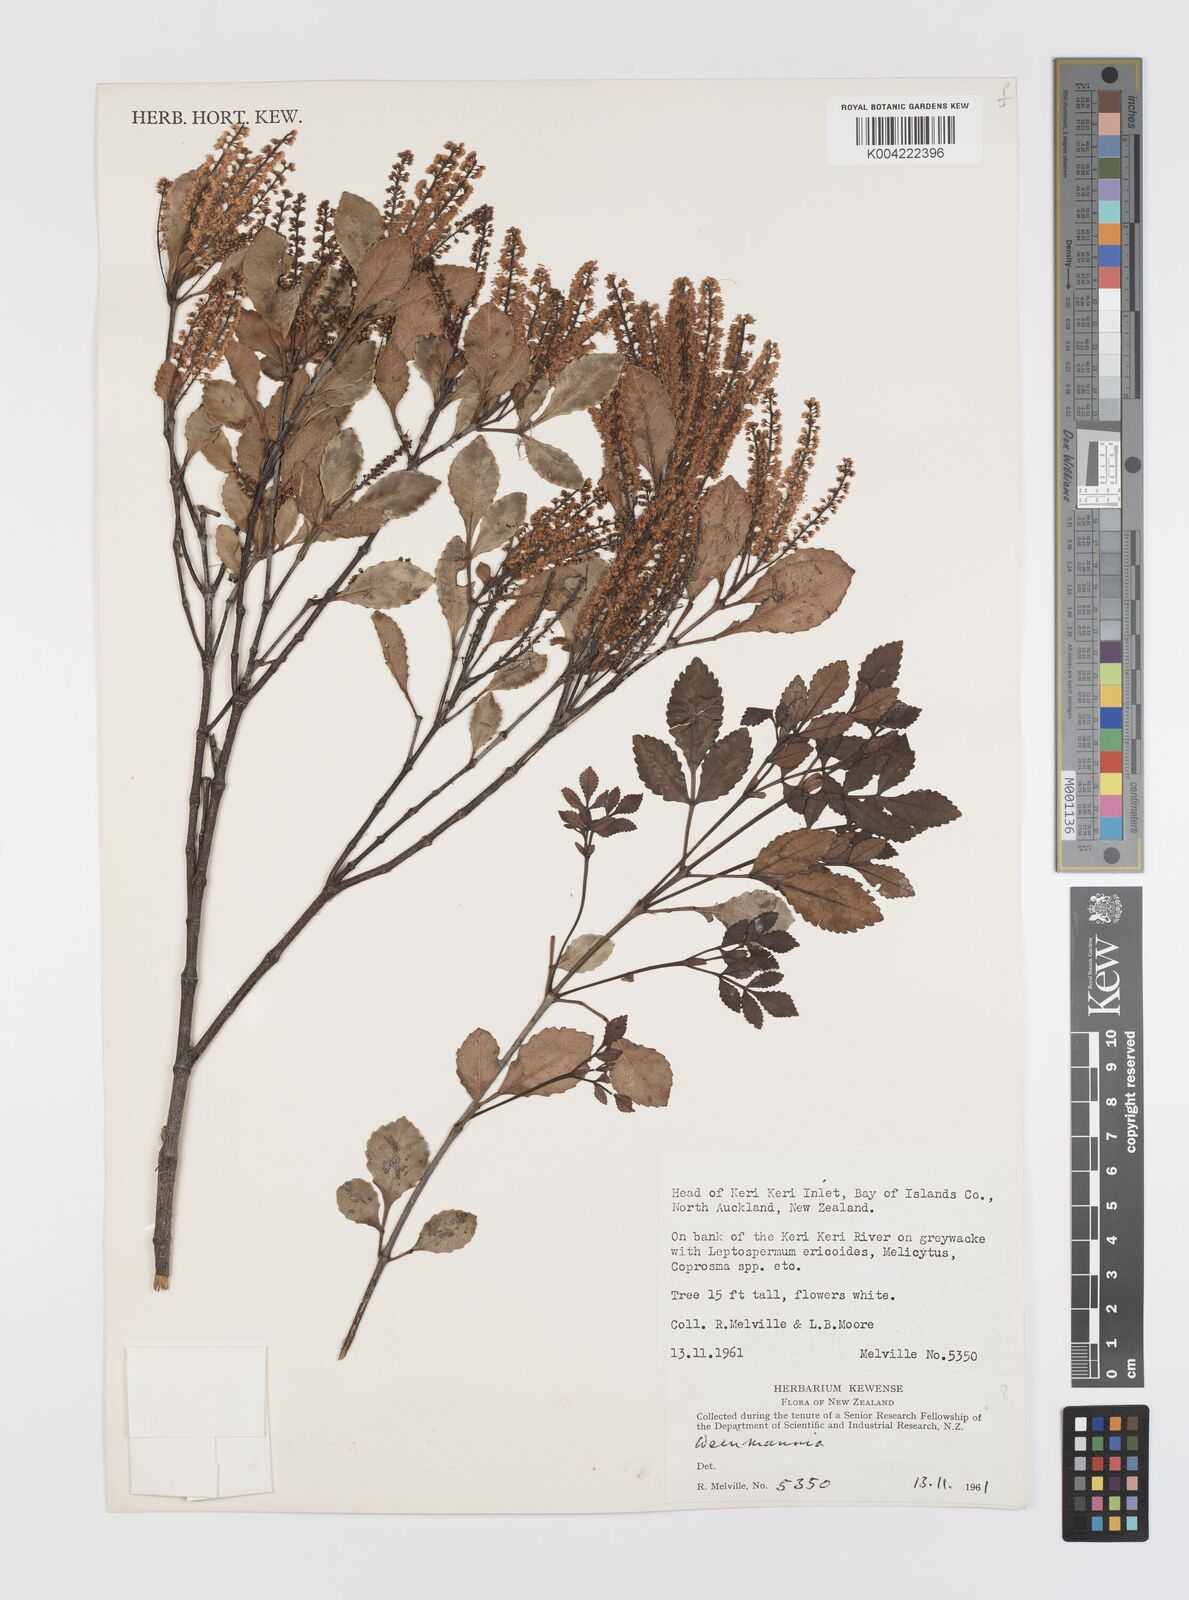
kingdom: Plantae
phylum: Tracheophyta
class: Magnoliopsida
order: Oxalidales
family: Cunoniaceae
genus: Weinmannia
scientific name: Weinmannia
